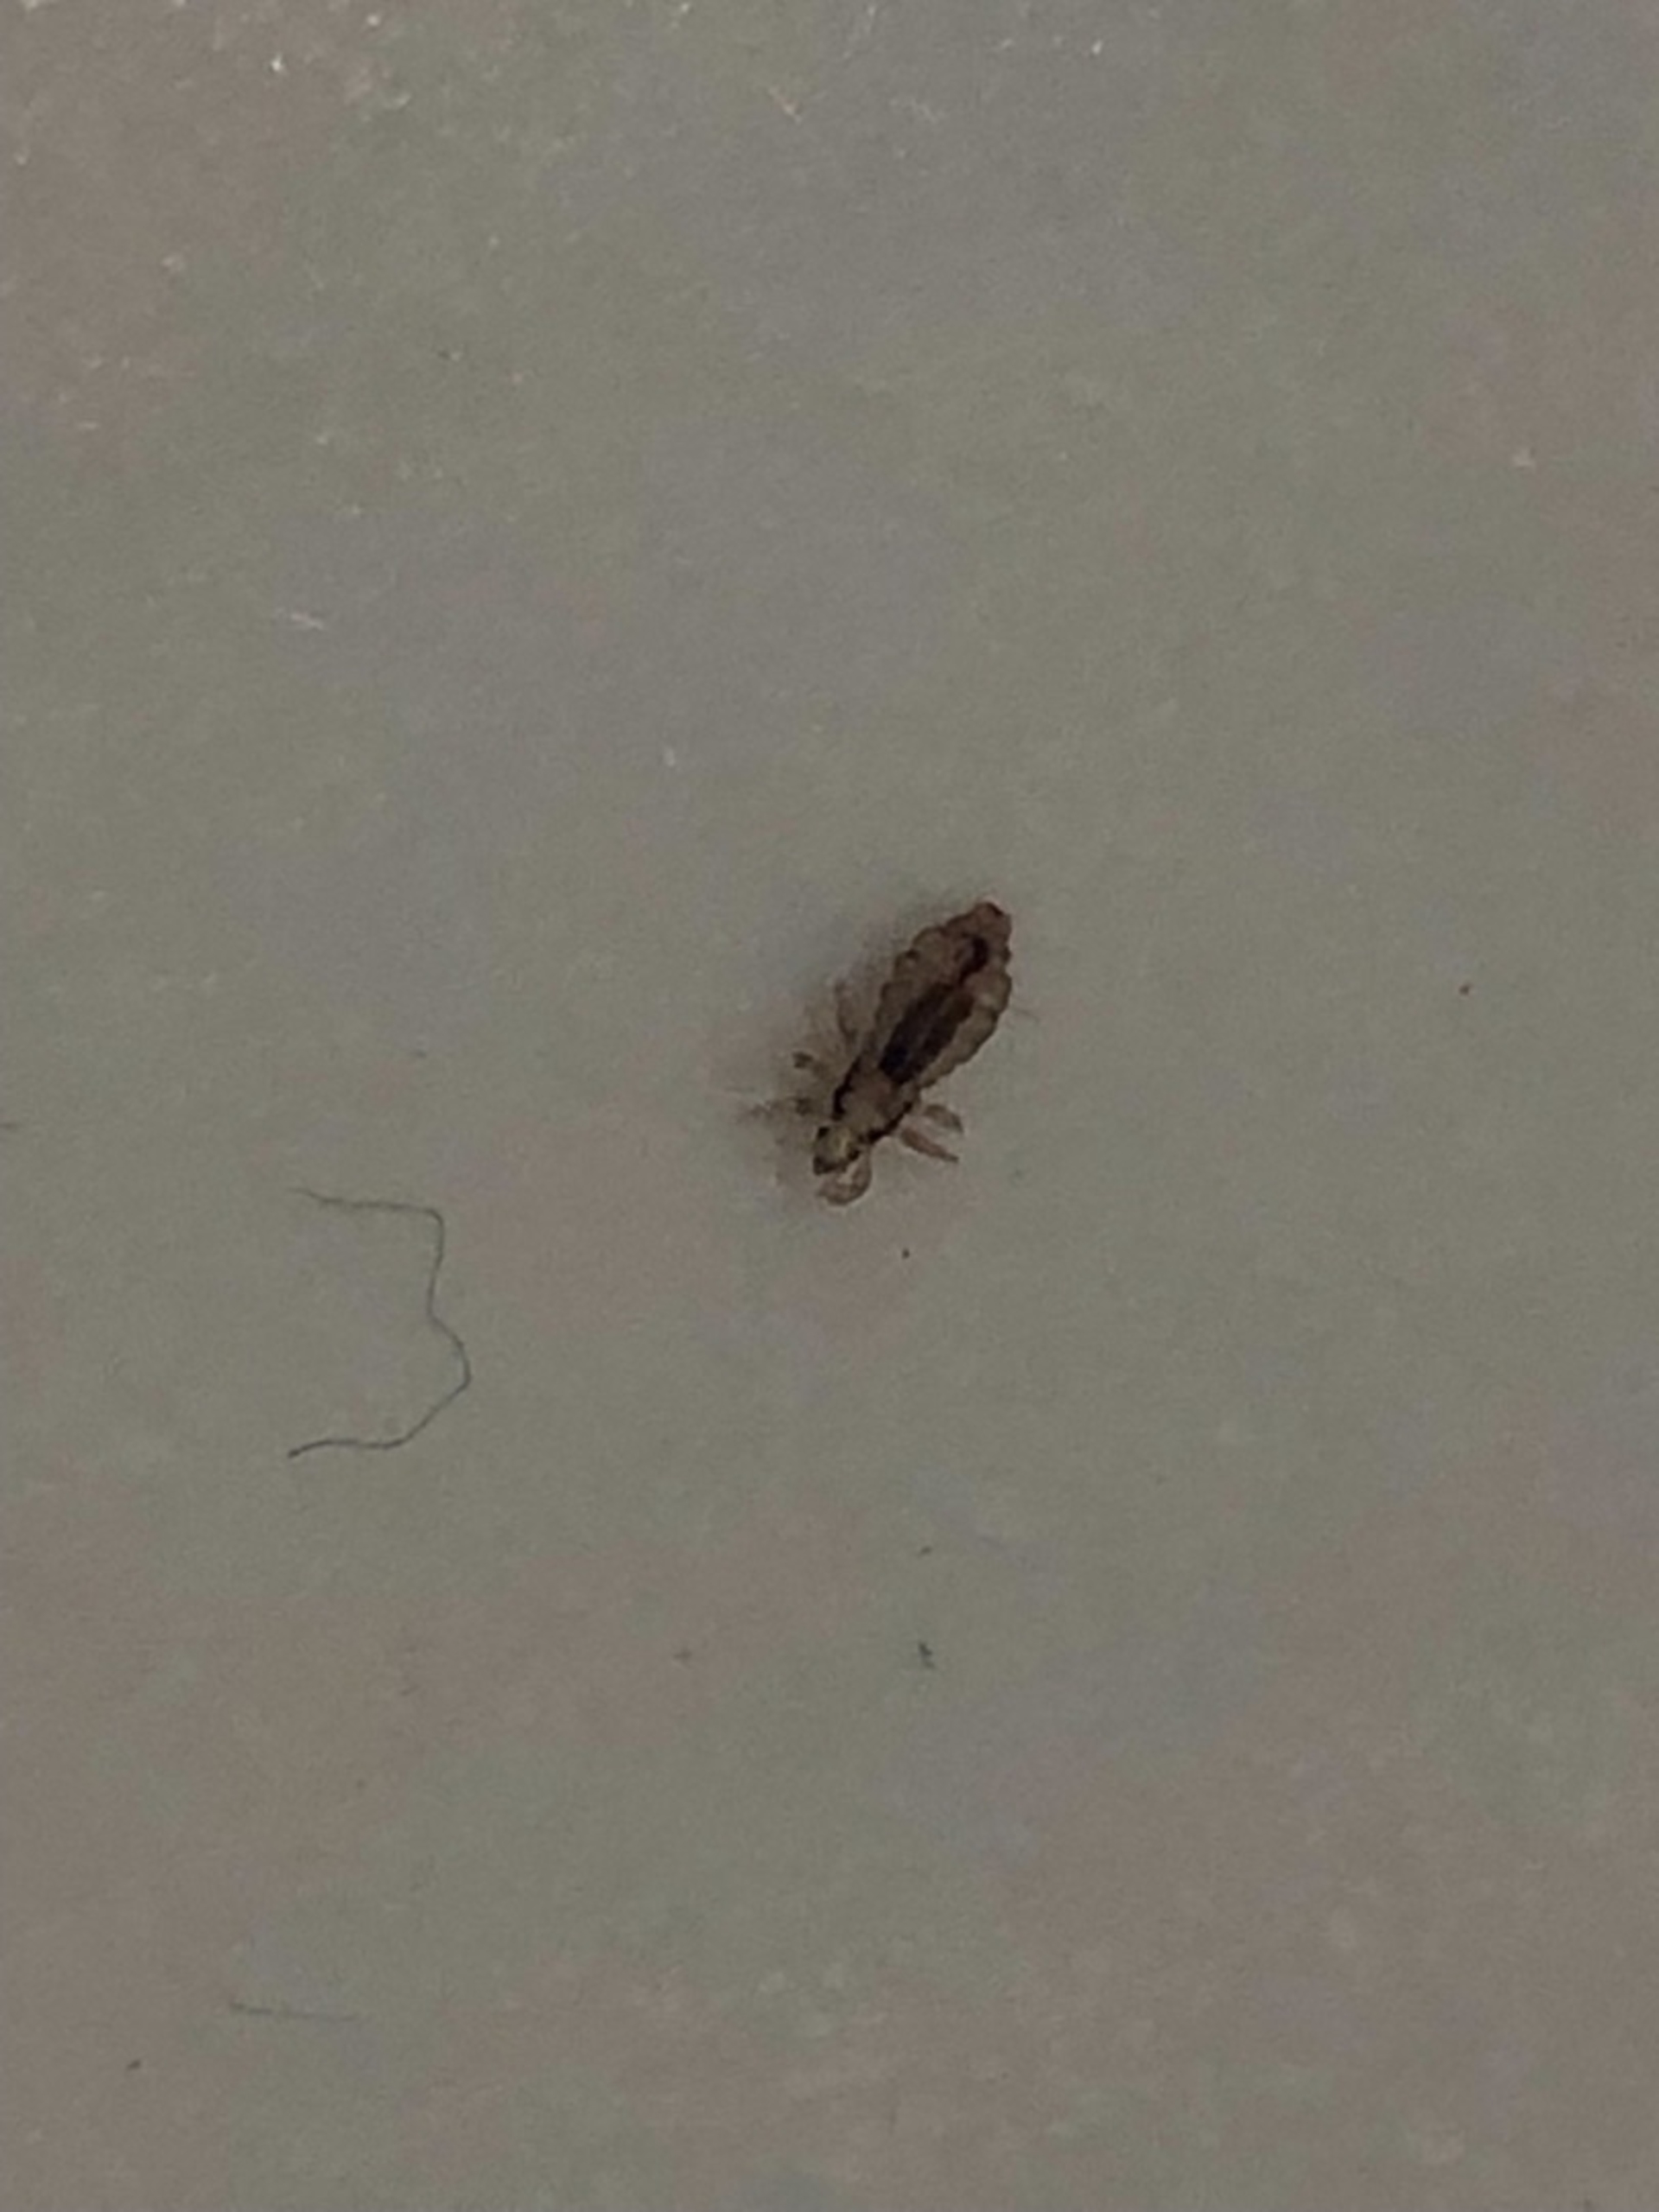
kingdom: Animalia
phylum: Arthropoda
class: Insecta
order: Psocodea
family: Pediculidae
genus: Pediculus
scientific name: Pediculus humanus
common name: Hovedlus
